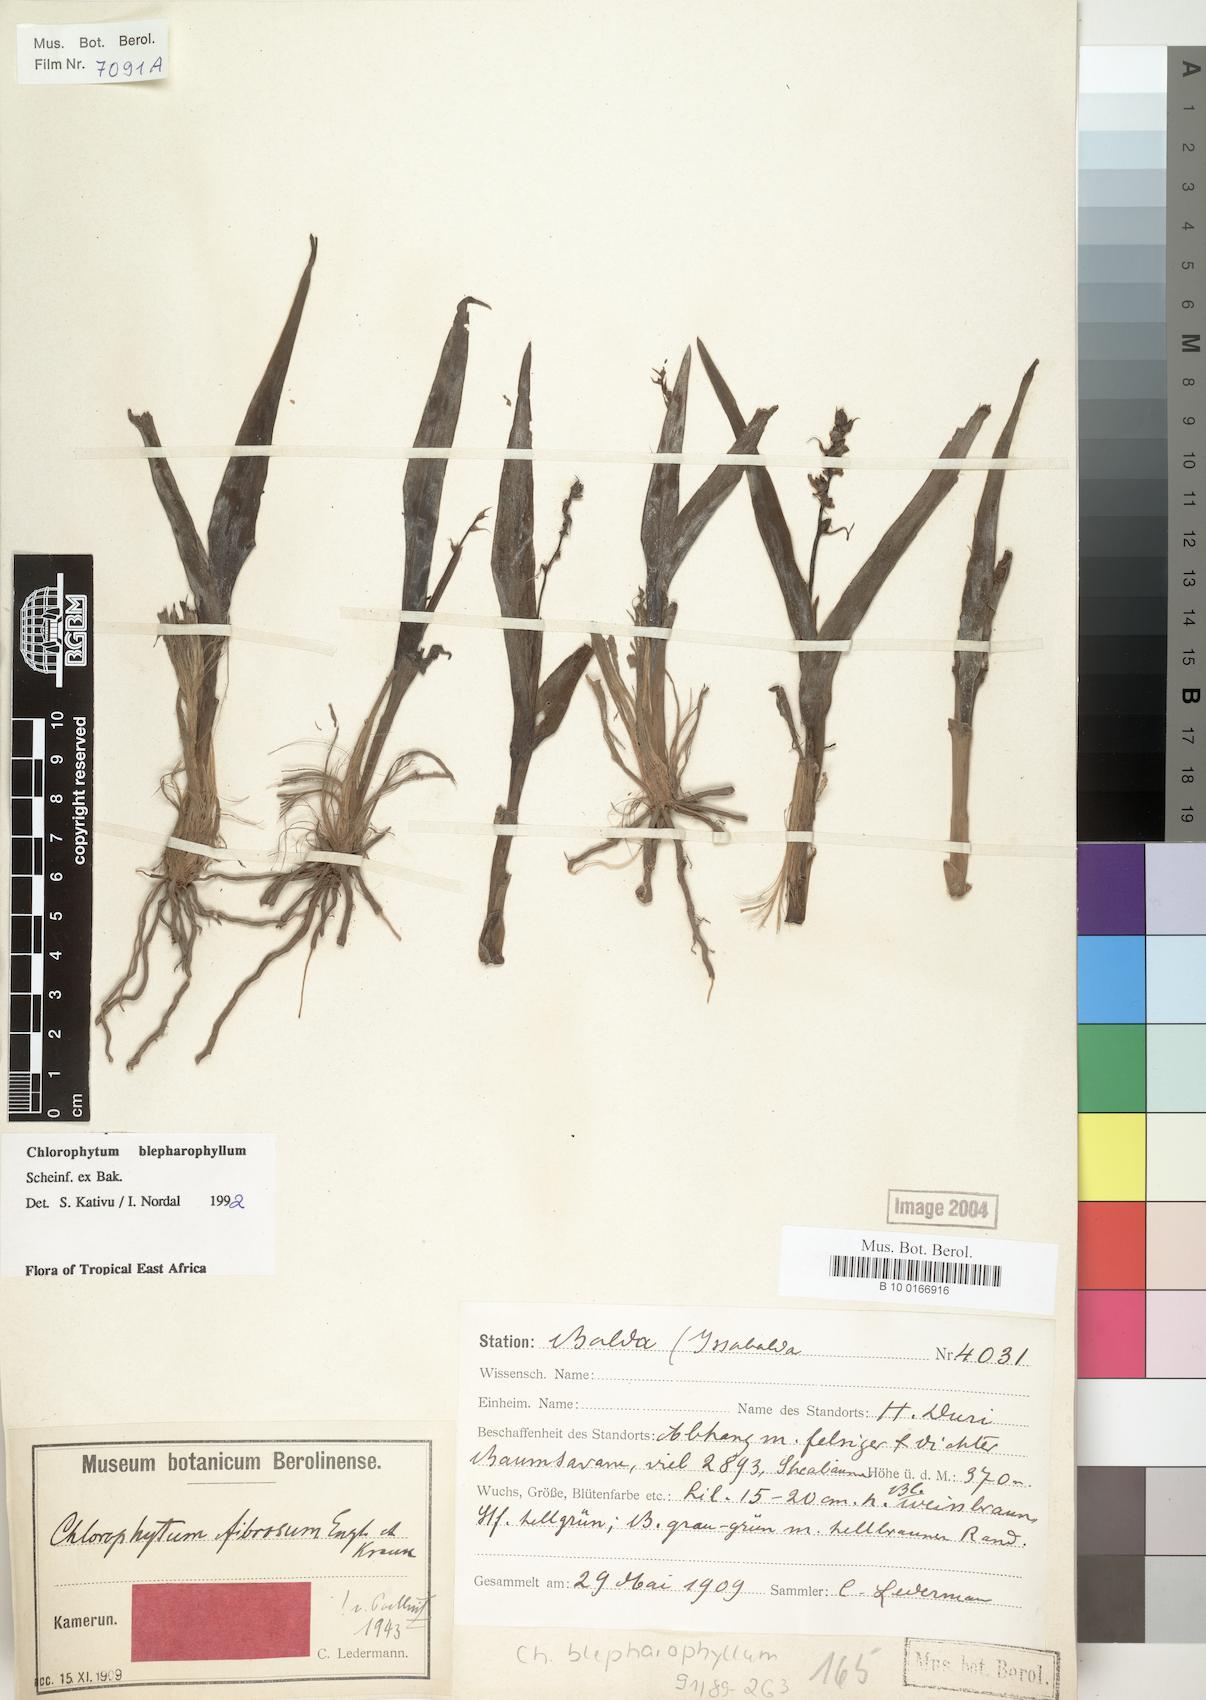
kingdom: Plantae
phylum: Tracheophyta
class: Liliopsida
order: Asparagales
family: Asparagaceae
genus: Chlorophytum
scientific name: Chlorophytum blepharophyllum
